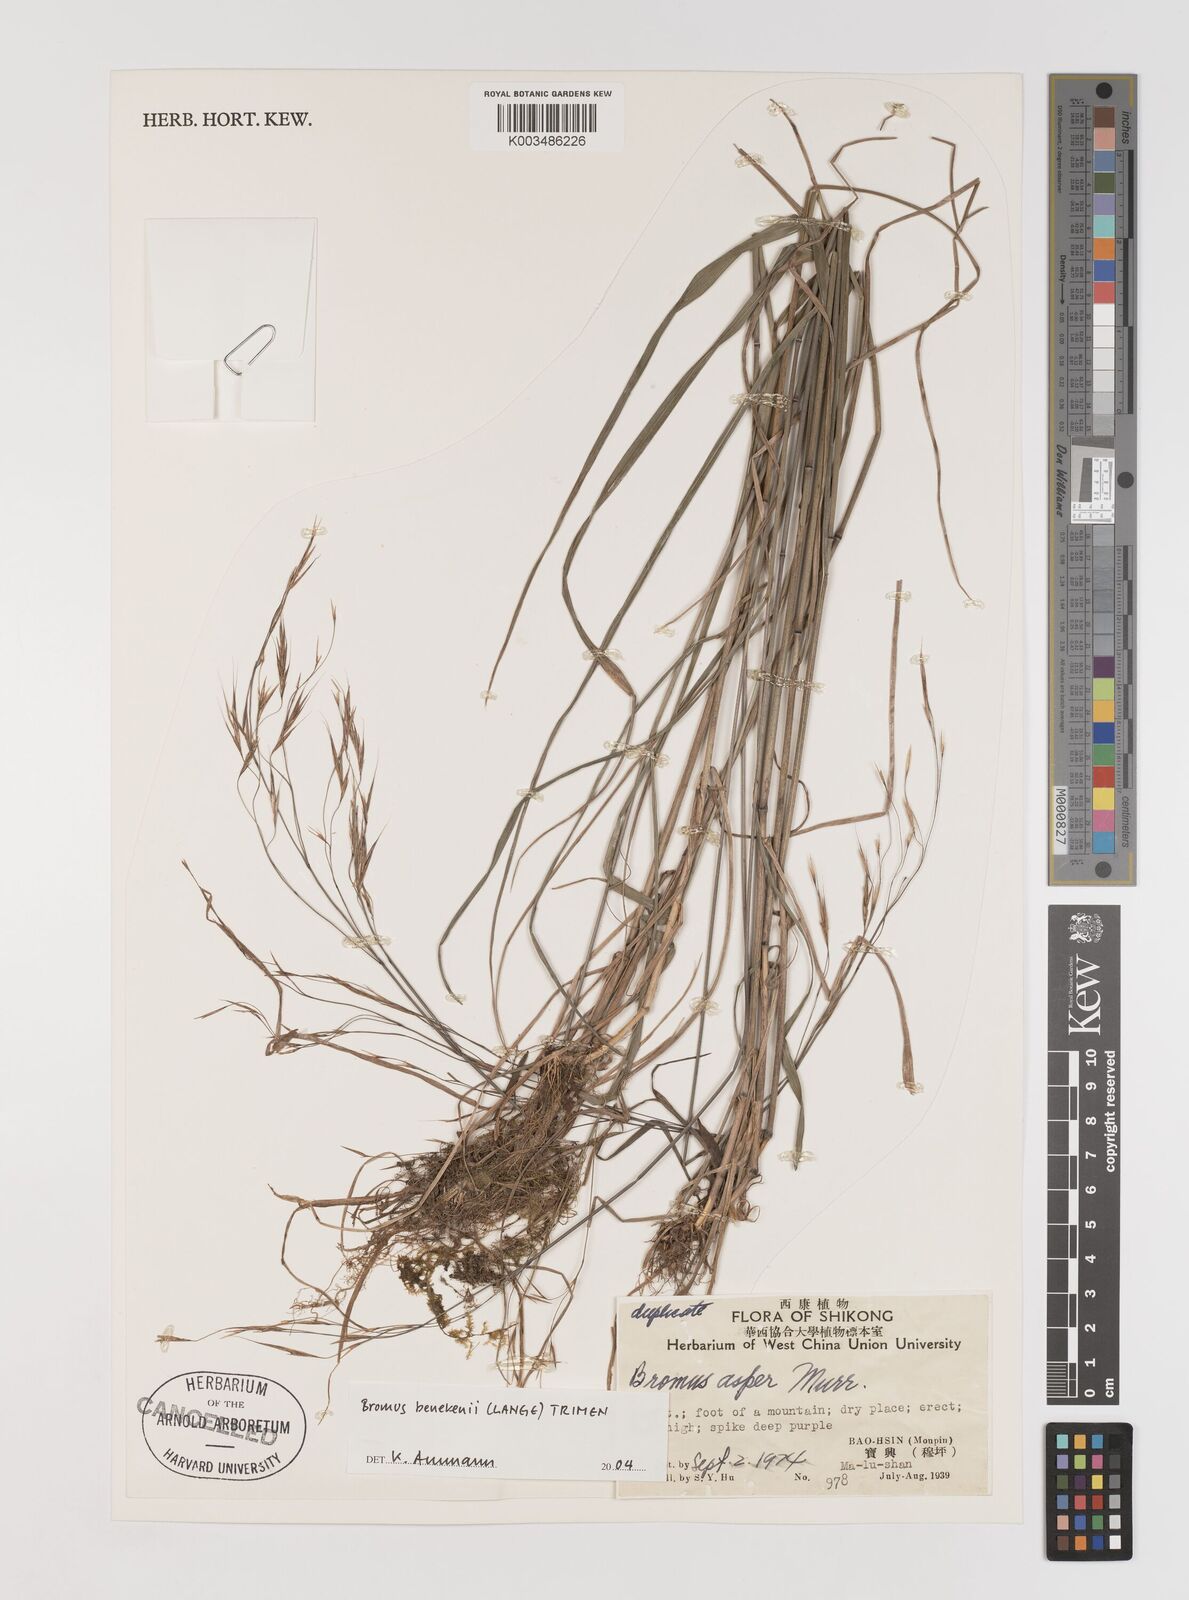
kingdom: Plantae
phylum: Tracheophyta
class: Liliopsida
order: Poales
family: Poaceae
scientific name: Poaceae
